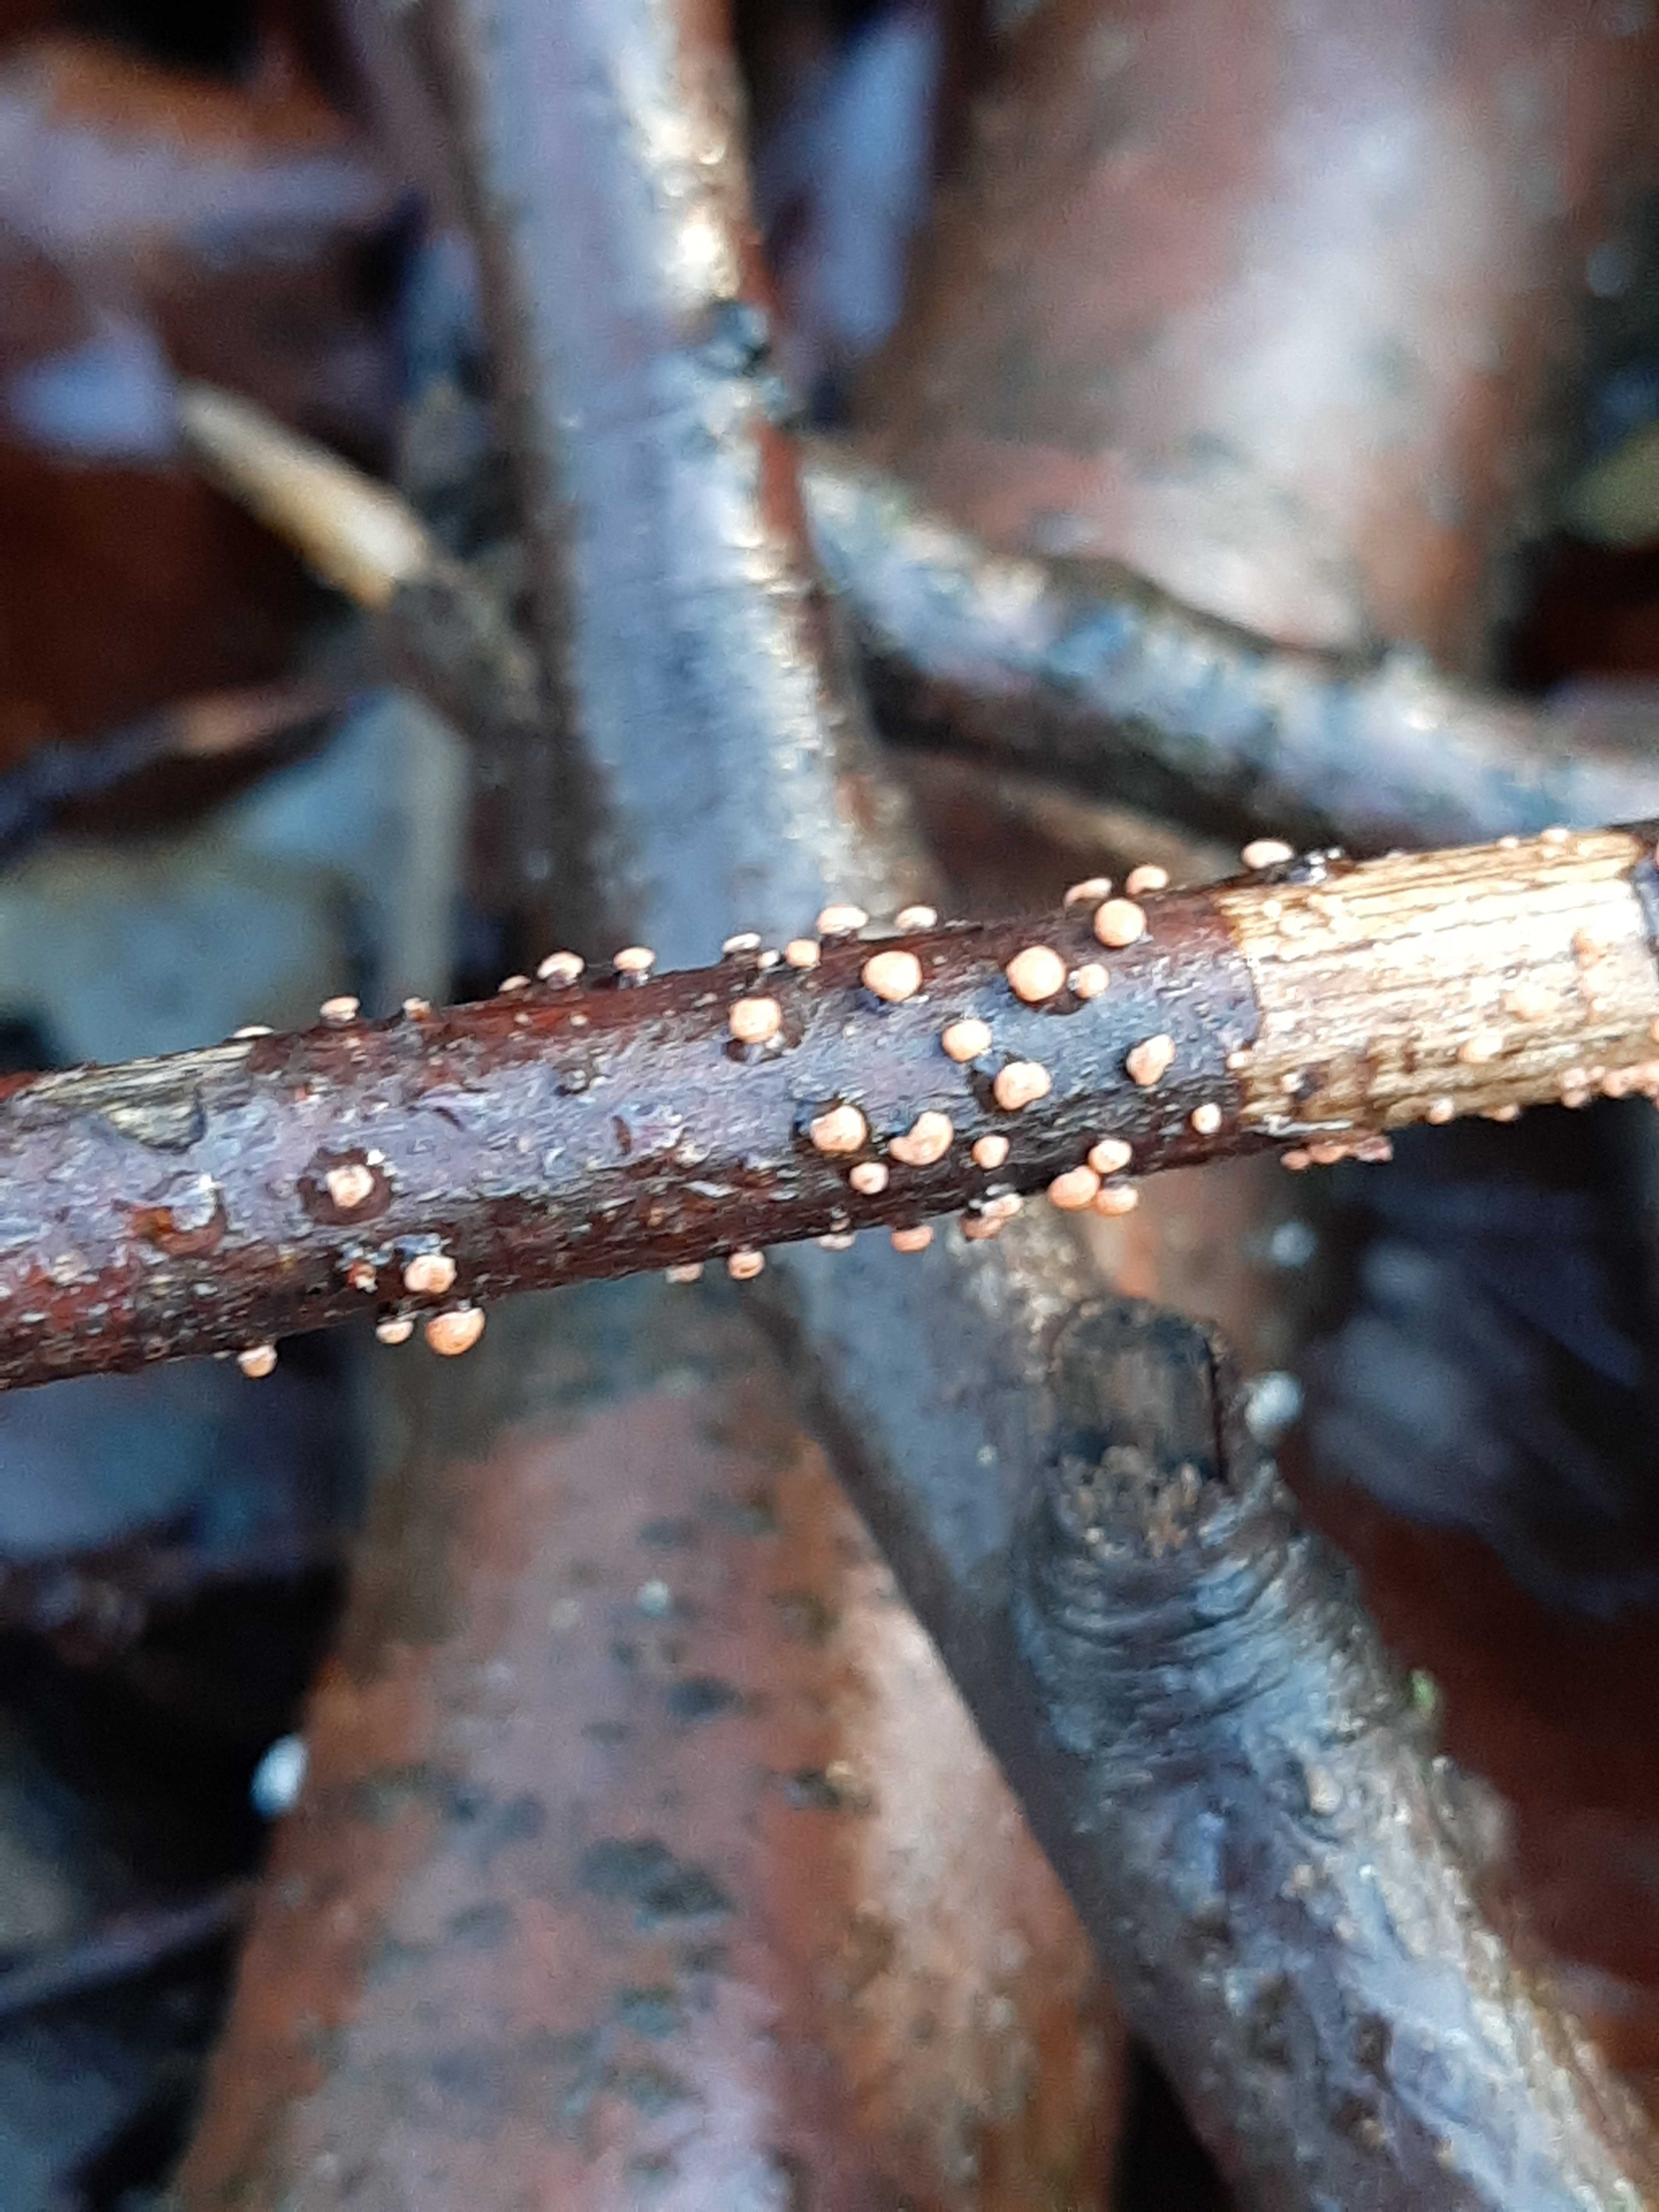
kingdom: Fungi
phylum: Ascomycota
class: Sordariomycetes
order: Hypocreales
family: Nectriaceae
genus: Nectria
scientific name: Nectria cinnabarina
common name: almindelig cinnobersvamp
